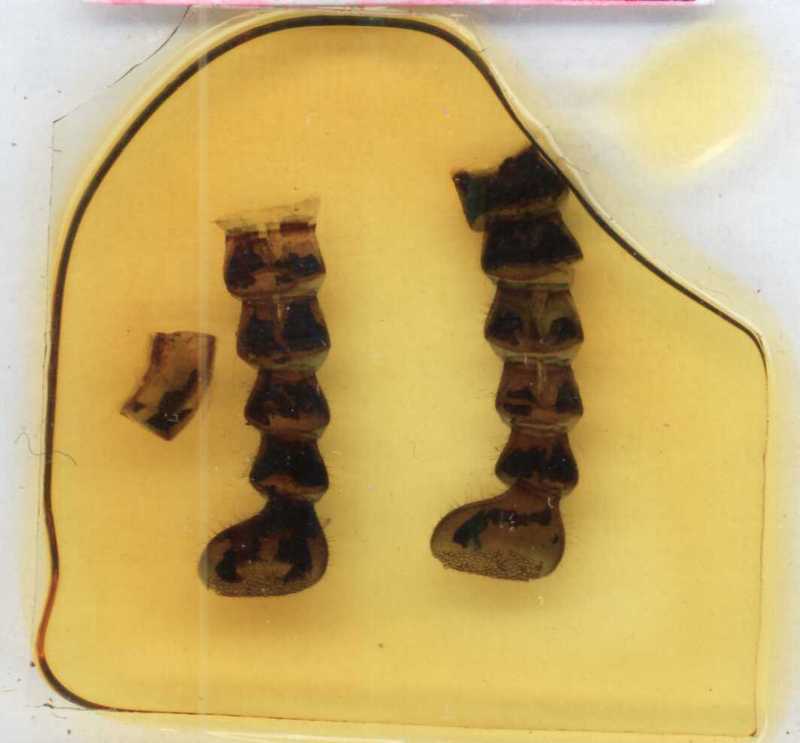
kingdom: Animalia
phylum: Arthropoda
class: Diplopoda
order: Sphaerotheriida
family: Zephroniidae
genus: Castanotherium
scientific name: Castanotherium costatum
